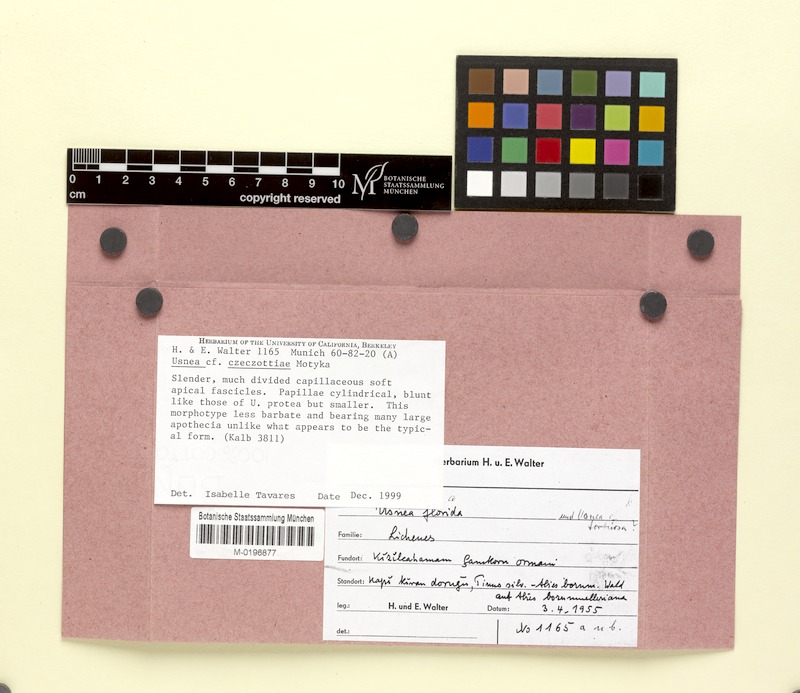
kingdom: Fungi
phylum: Ascomycota
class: Lecanoromycetes
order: Lecanorales
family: Parmeliaceae
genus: Usnea
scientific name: Usnea
